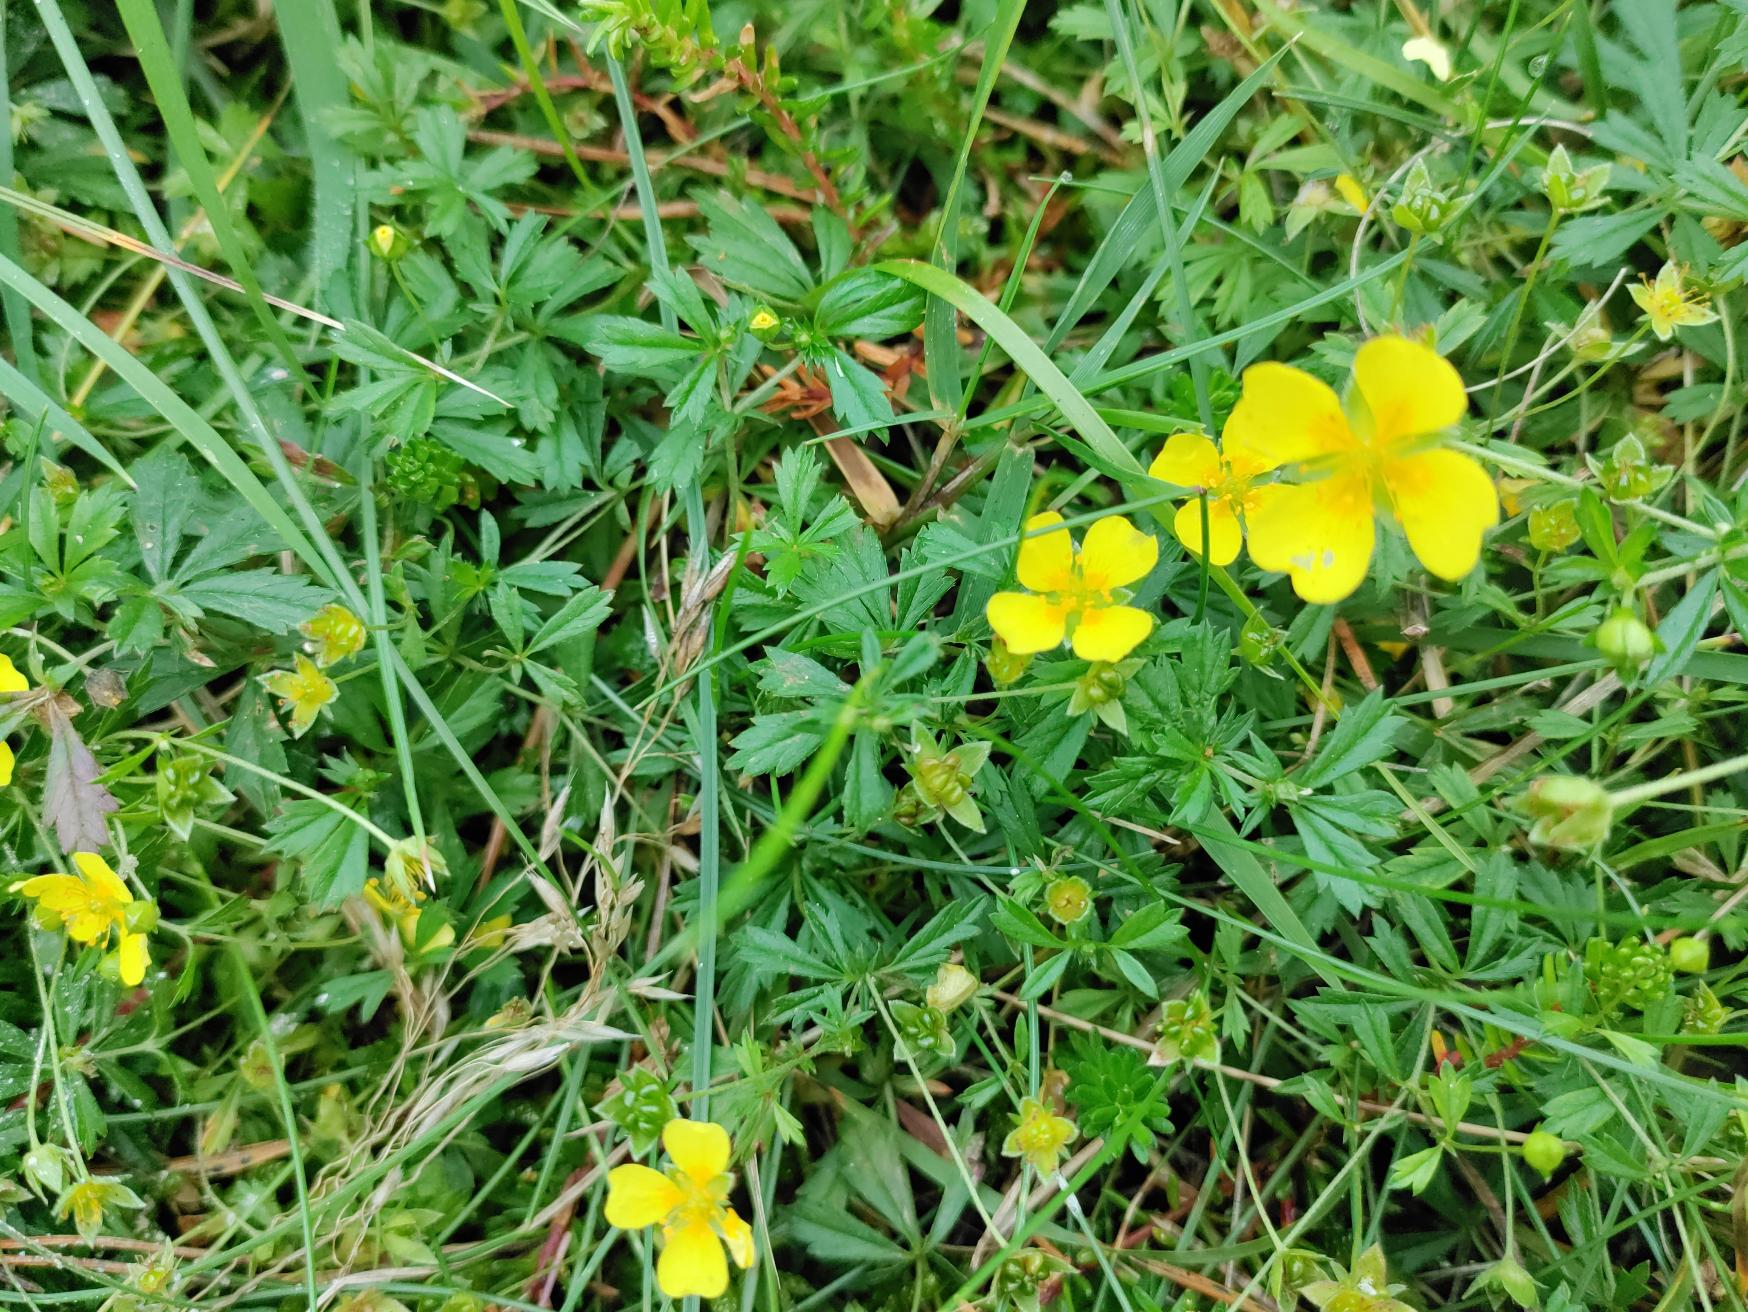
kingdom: Plantae
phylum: Tracheophyta
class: Magnoliopsida
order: Rosales
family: Rosaceae
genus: Potentilla
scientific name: Potentilla erecta
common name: Tormentil
